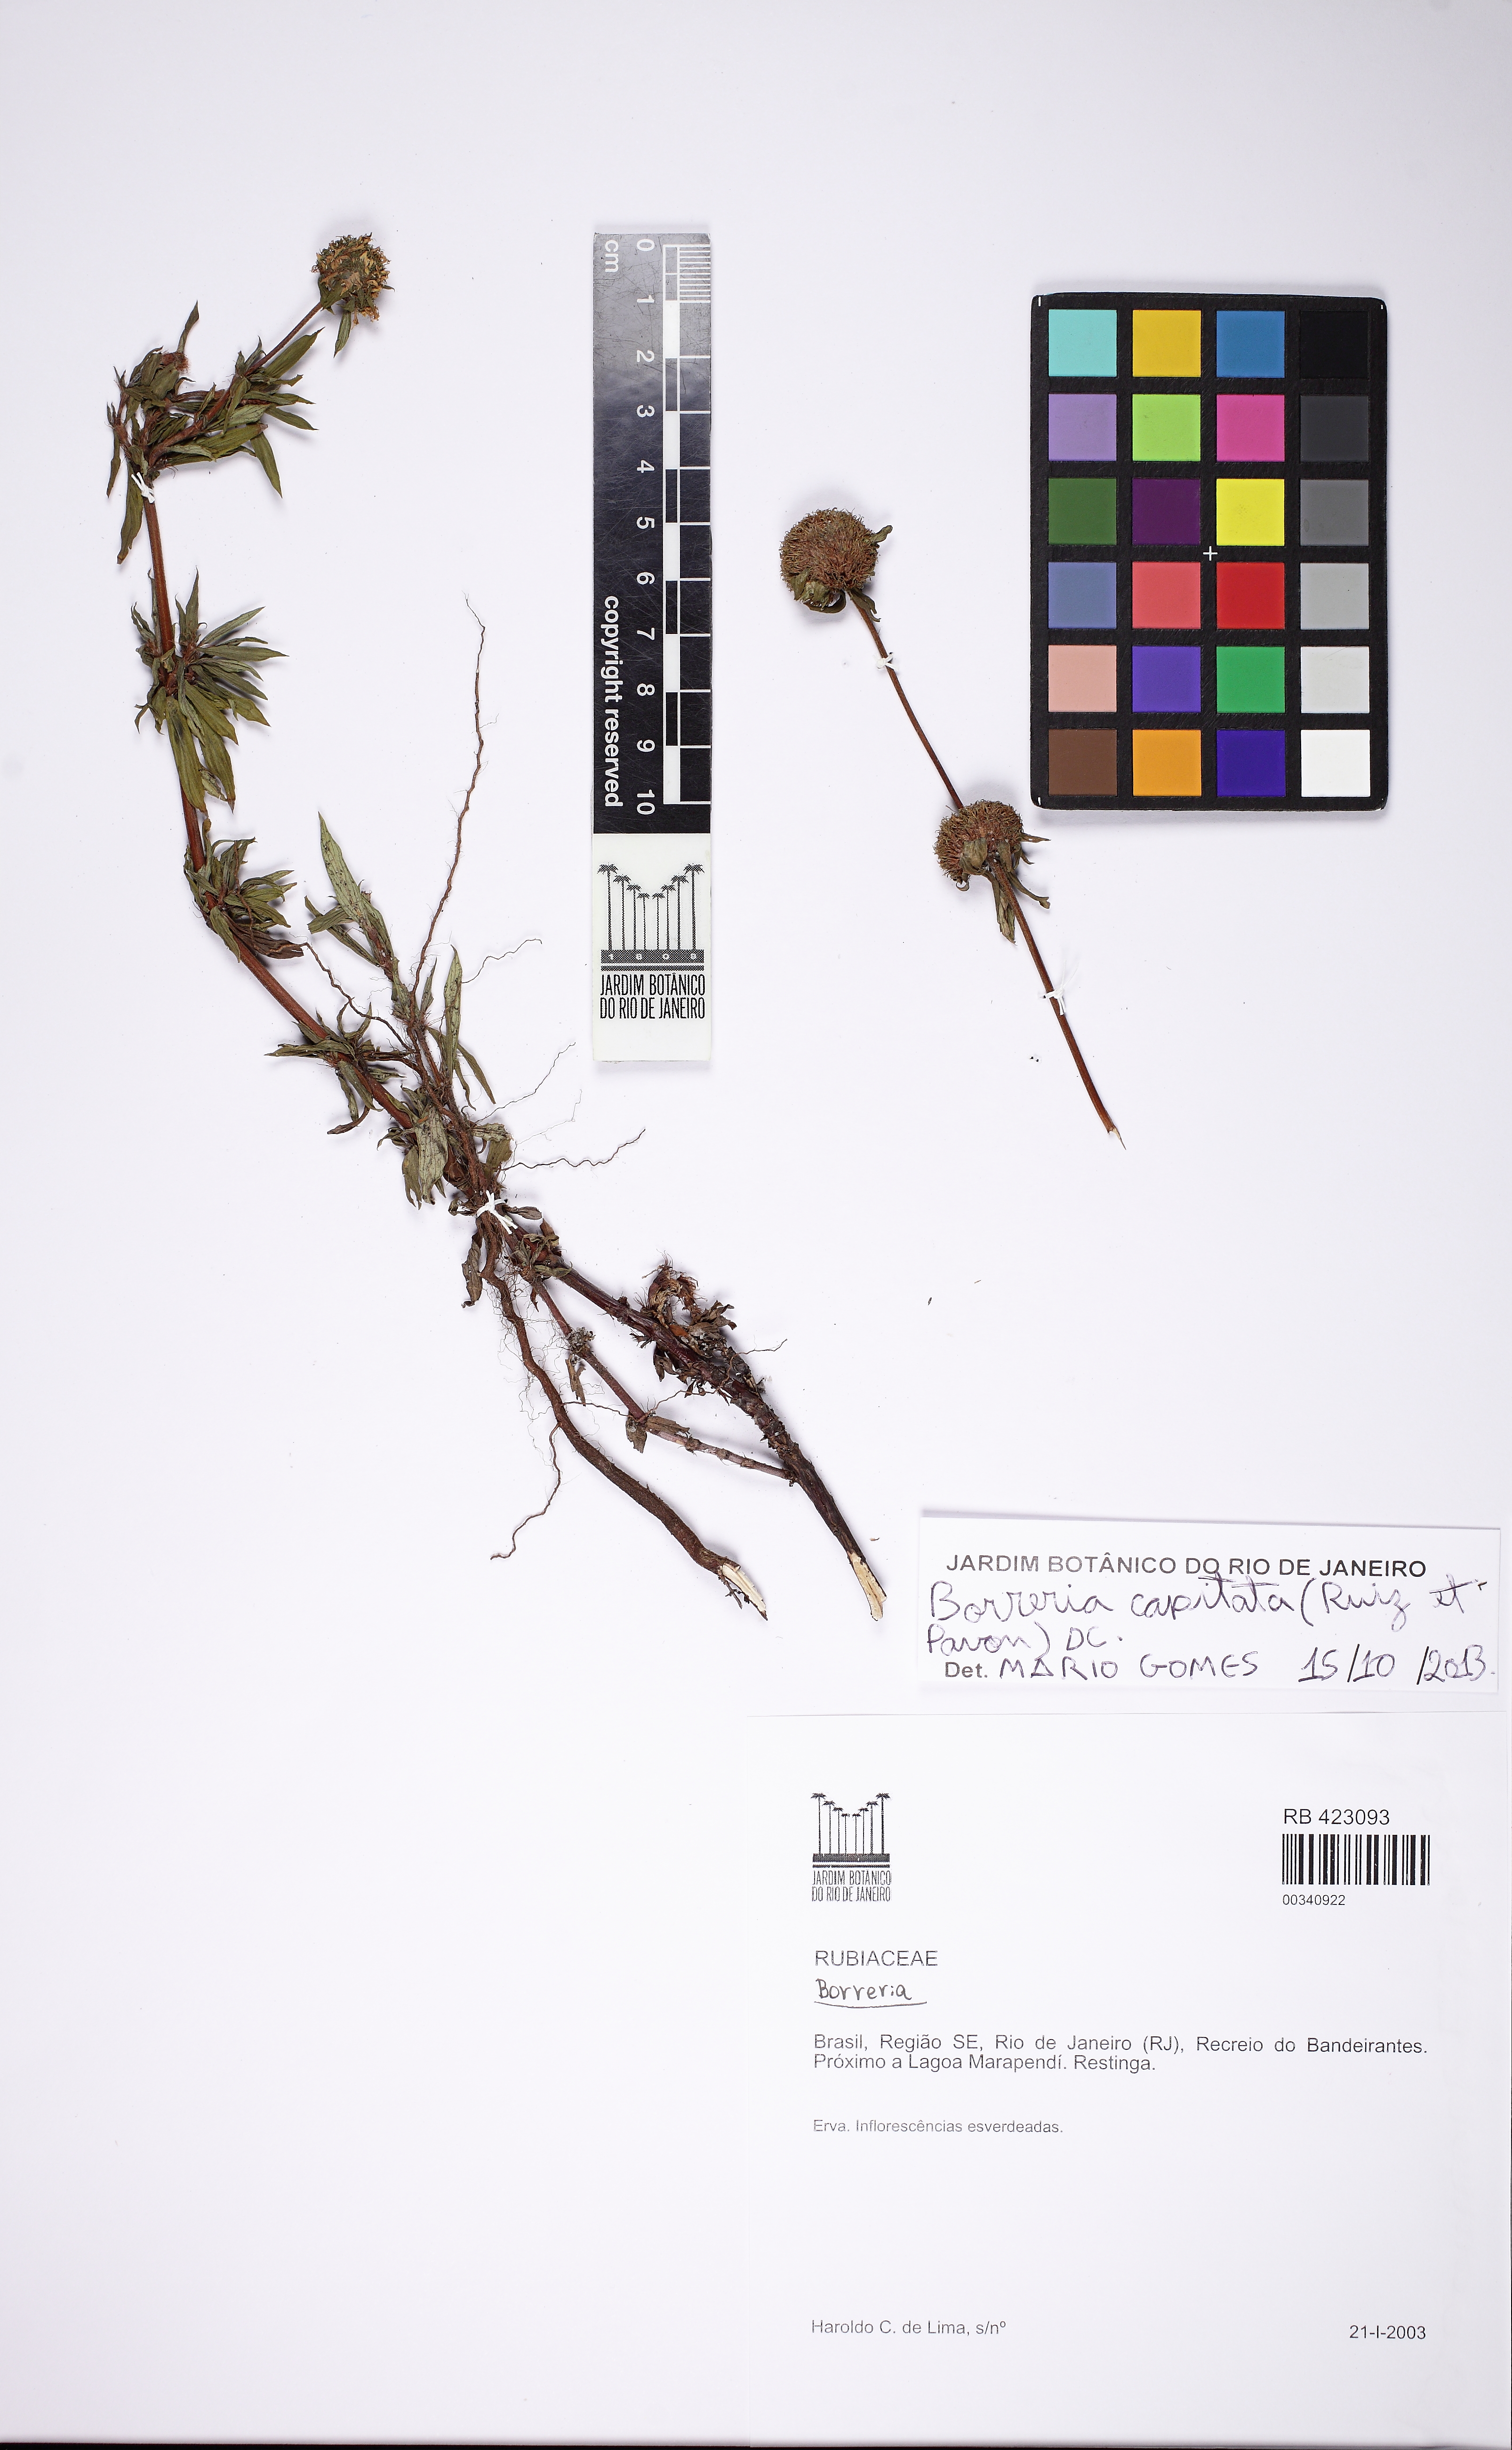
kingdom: Plantae
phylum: Tracheophyta
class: Magnoliopsida
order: Gentianales
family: Rubiaceae
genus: Spermacoce
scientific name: Spermacoce capitata
